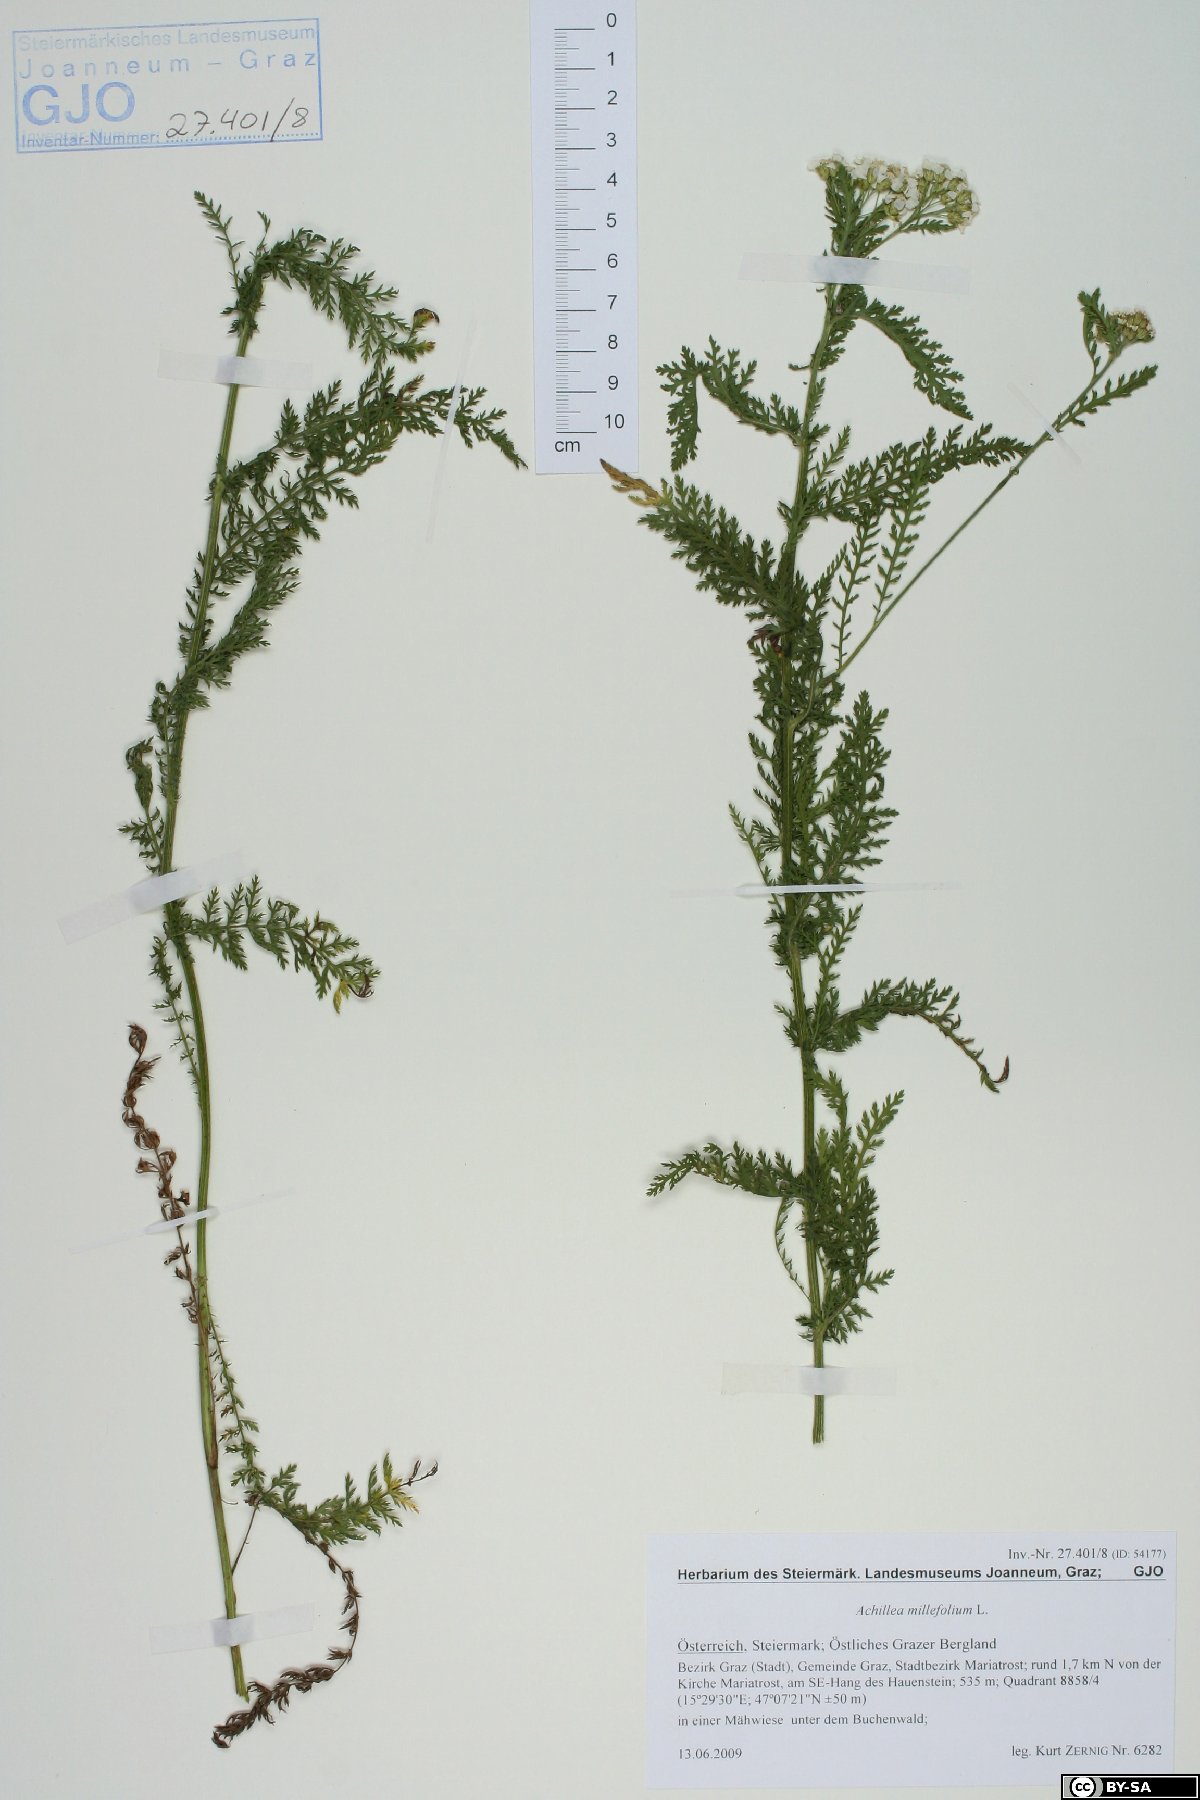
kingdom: Plantae
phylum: Tracheophyta
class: Magnoliopsida
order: Asterales
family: Asteraceae
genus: Achillea
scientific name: Achillea millefolium
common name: Yarrow
